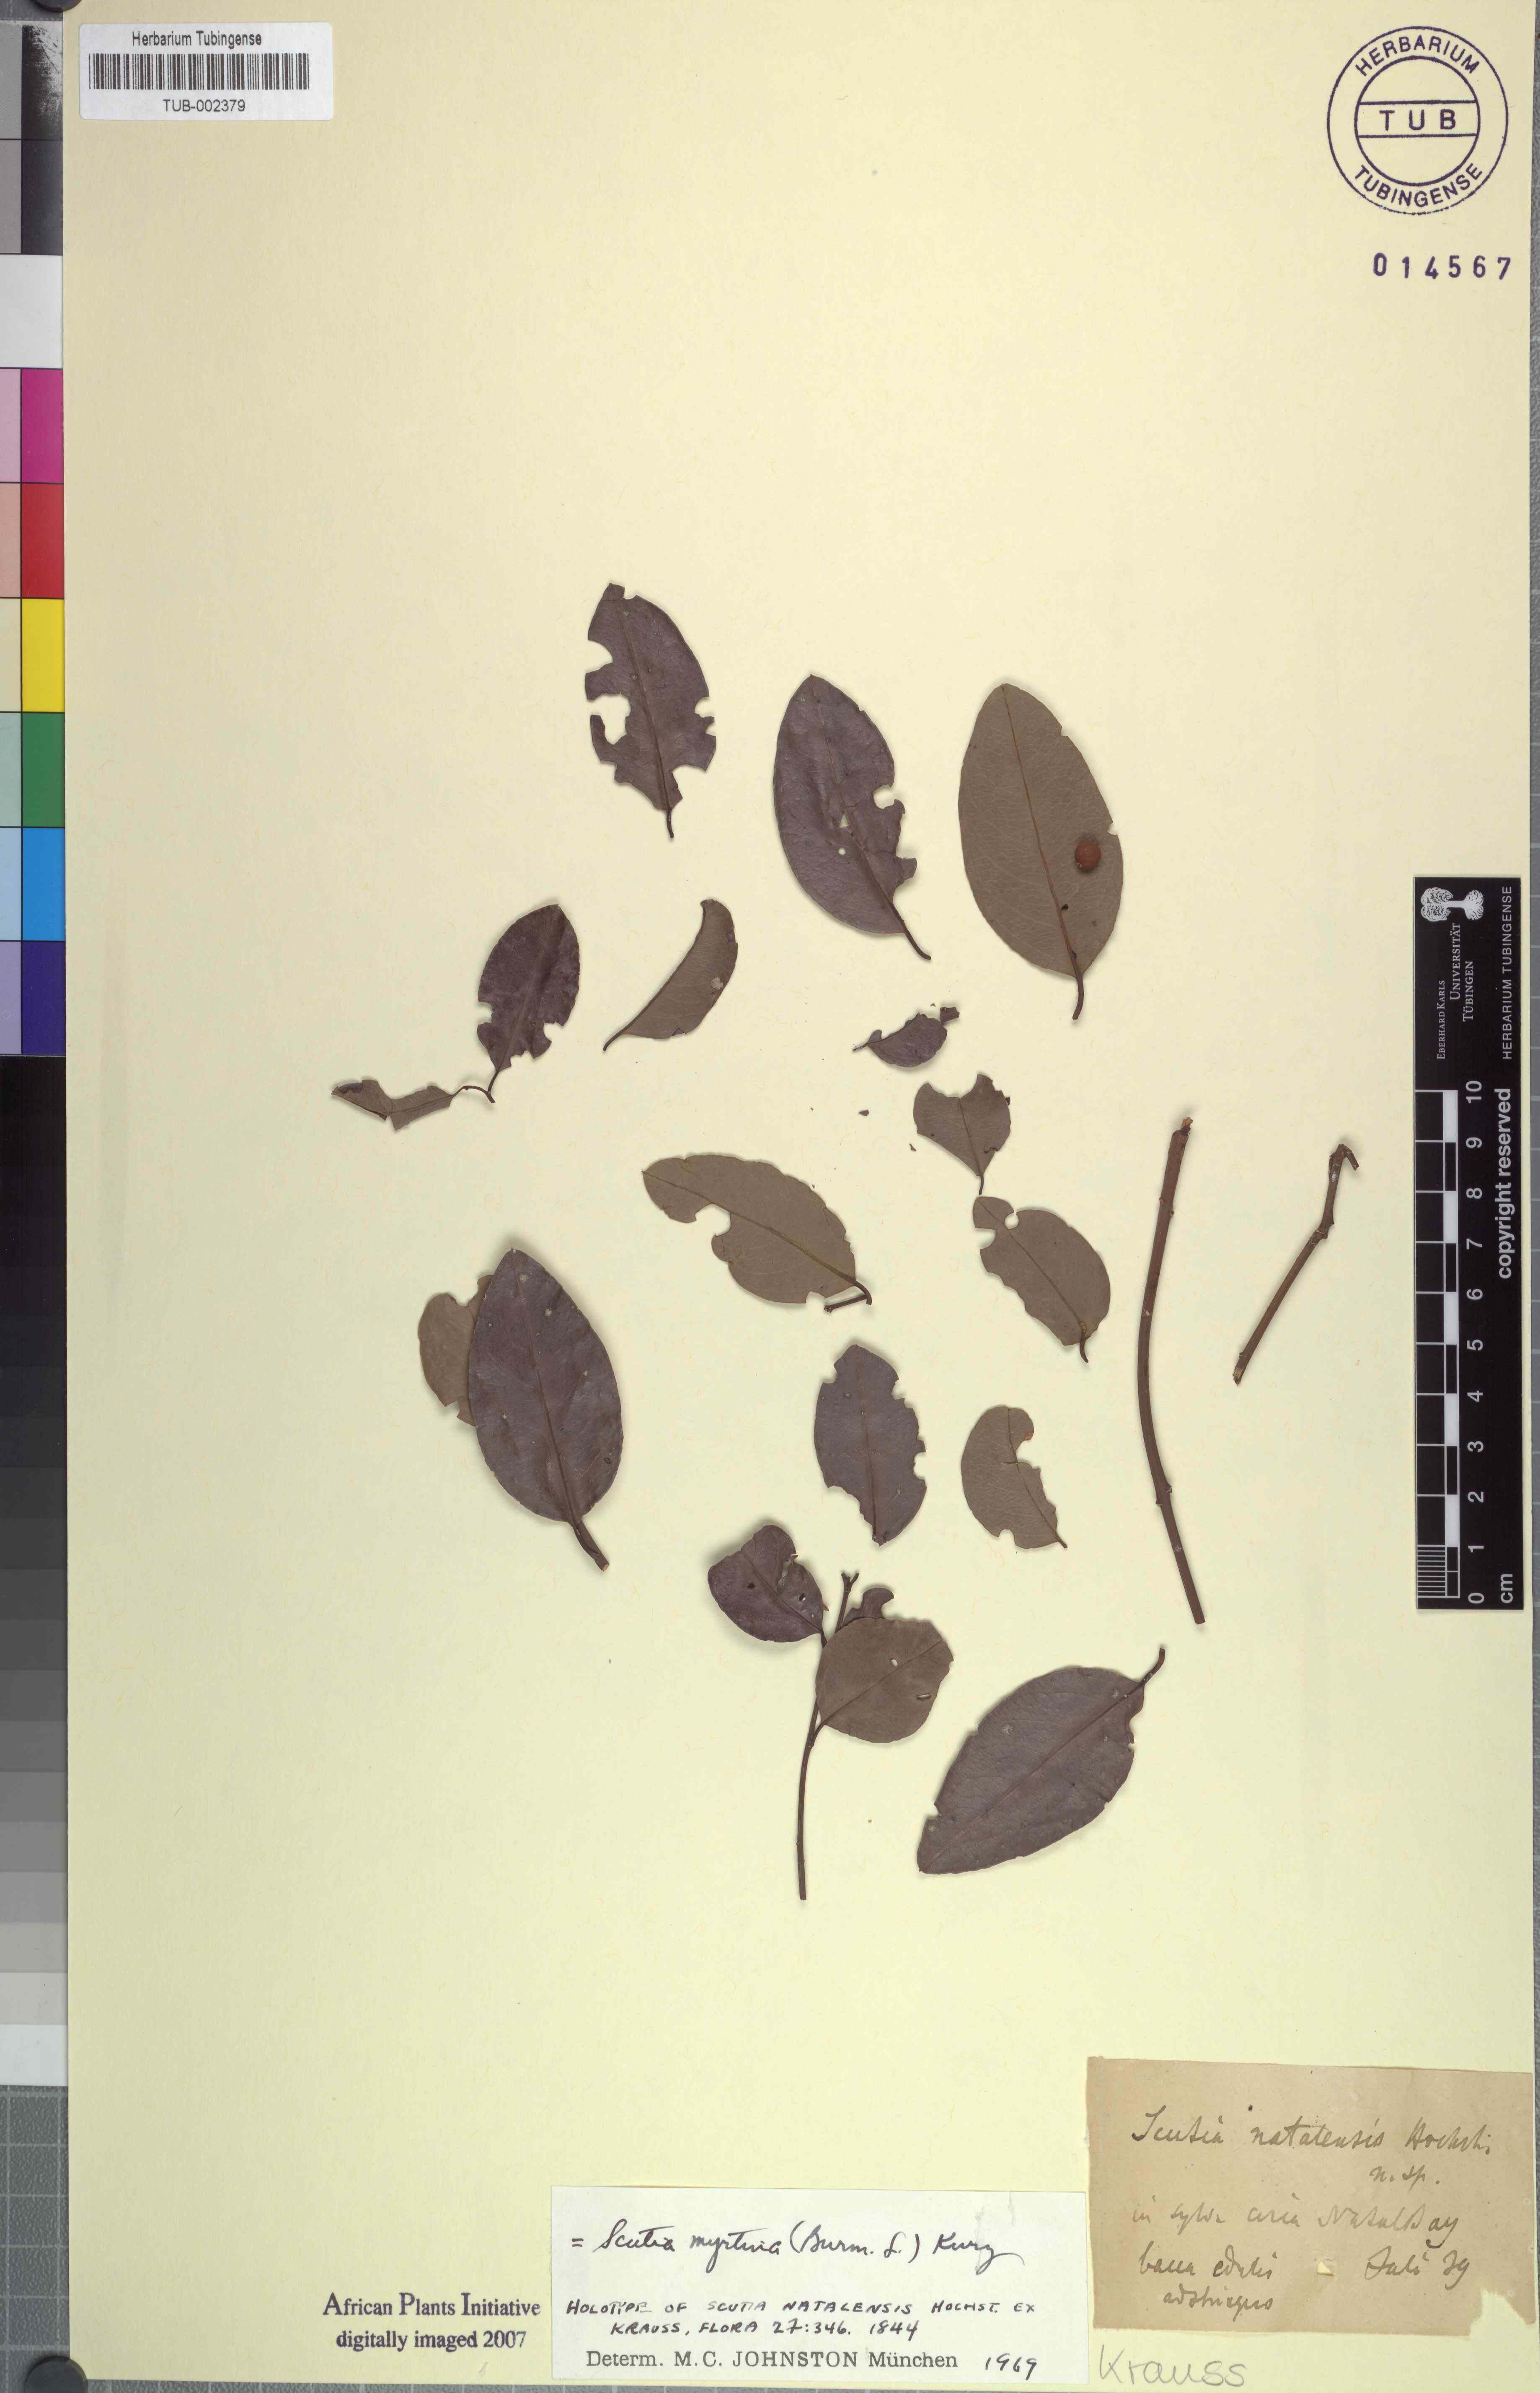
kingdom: Plantae
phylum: Tracheophyta
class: Magnoliopsida
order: Rosales
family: Rhamnaceae
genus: Scutia
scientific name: Scutia myrtina
